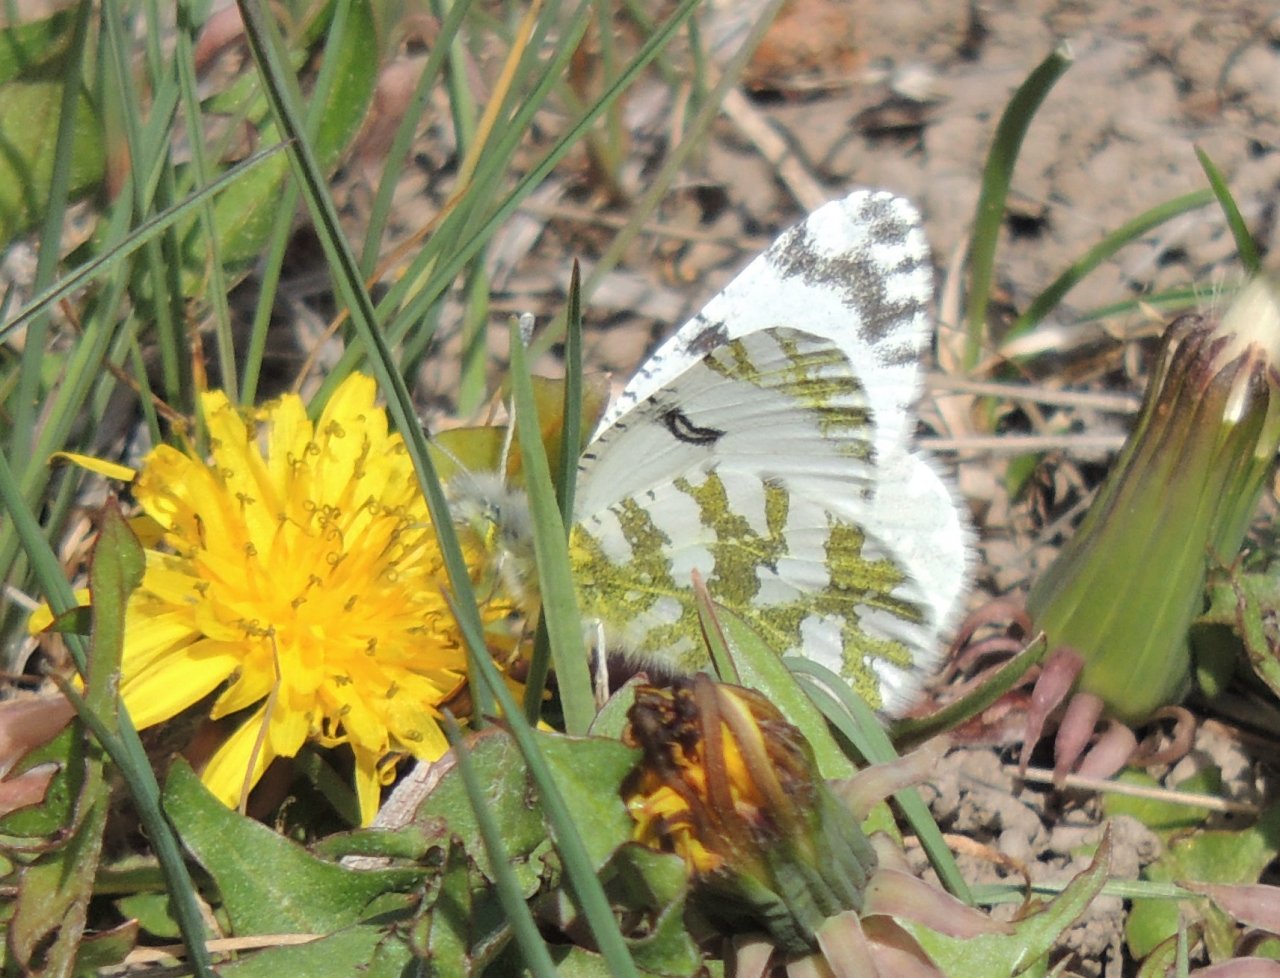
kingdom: Animalia
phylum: Arthropoda
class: Insecta
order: Lepidoptera
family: Pieridae
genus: Euchloe
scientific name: Euchloe lotta
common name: Desert Marble
